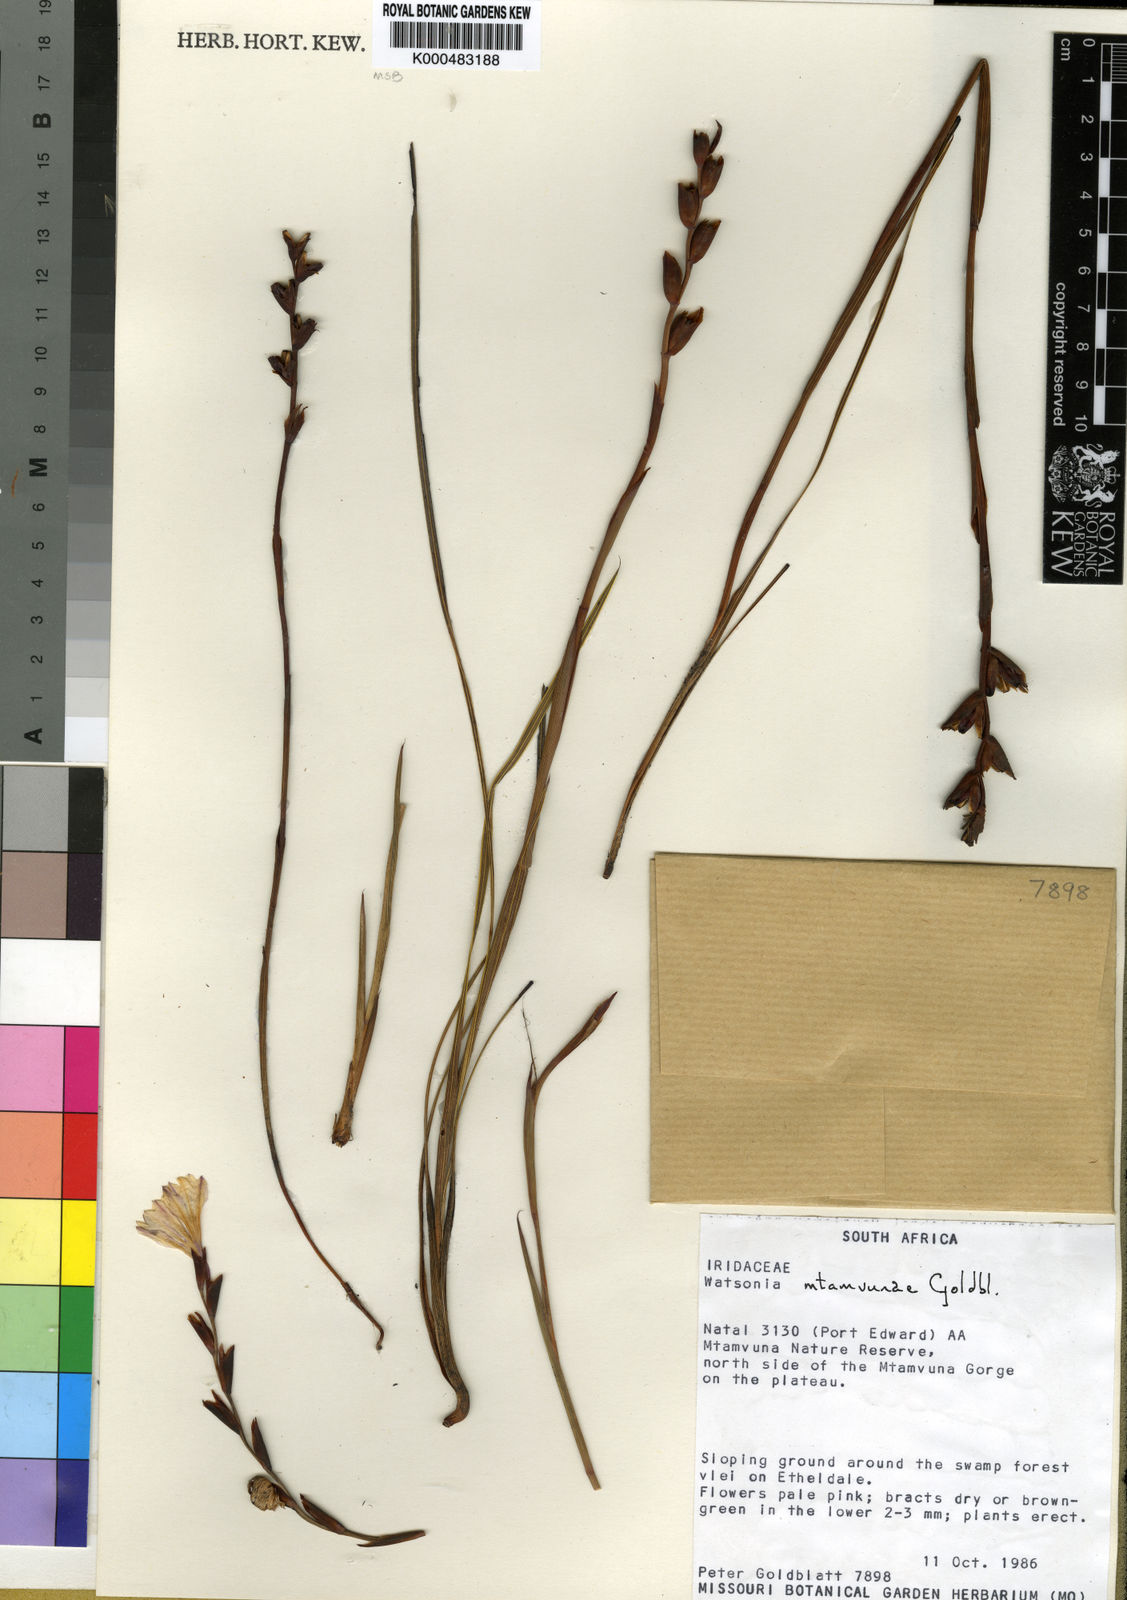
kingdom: Plantae
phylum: Tracheophyta
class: Liliopsida
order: Asparagales
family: Iridaceae
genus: Watsonia
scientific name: Watsonia mtamvunae
